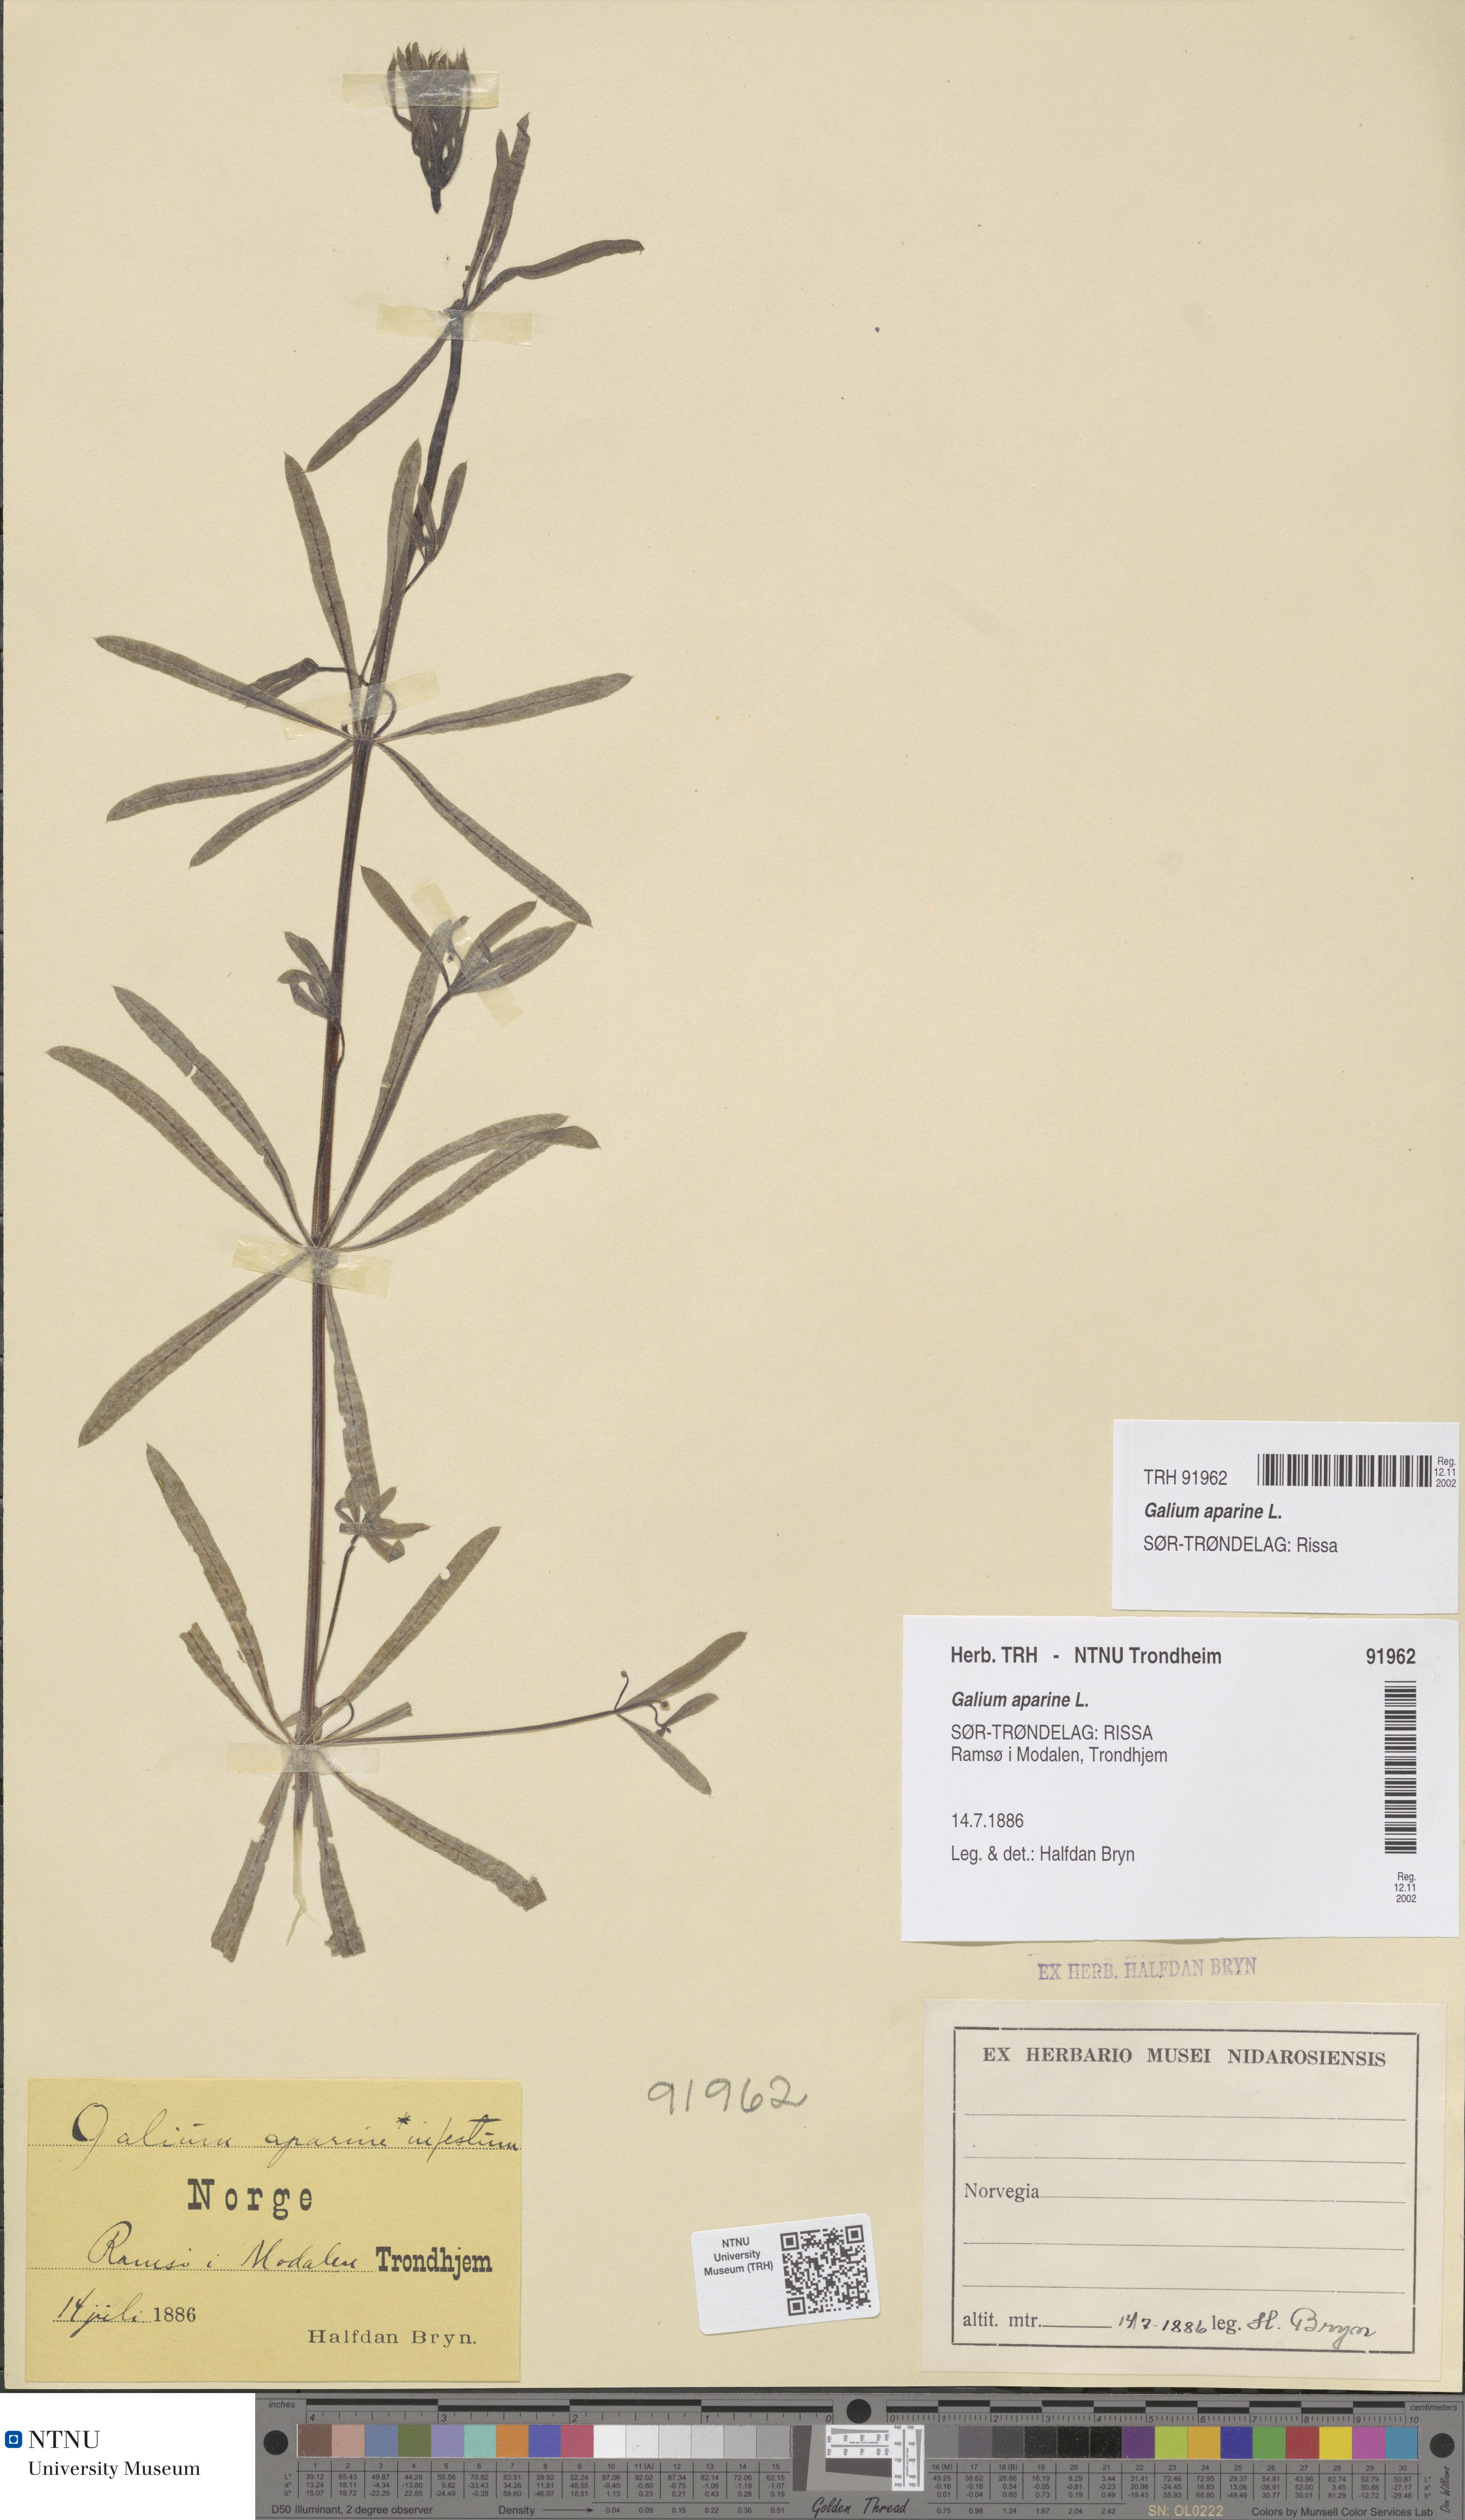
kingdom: Plantae
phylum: Tracheophyta
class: Magnoliopsida
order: Gentianales
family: Rubiaceae
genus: Galium
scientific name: Galium aparine
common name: Cleavers
